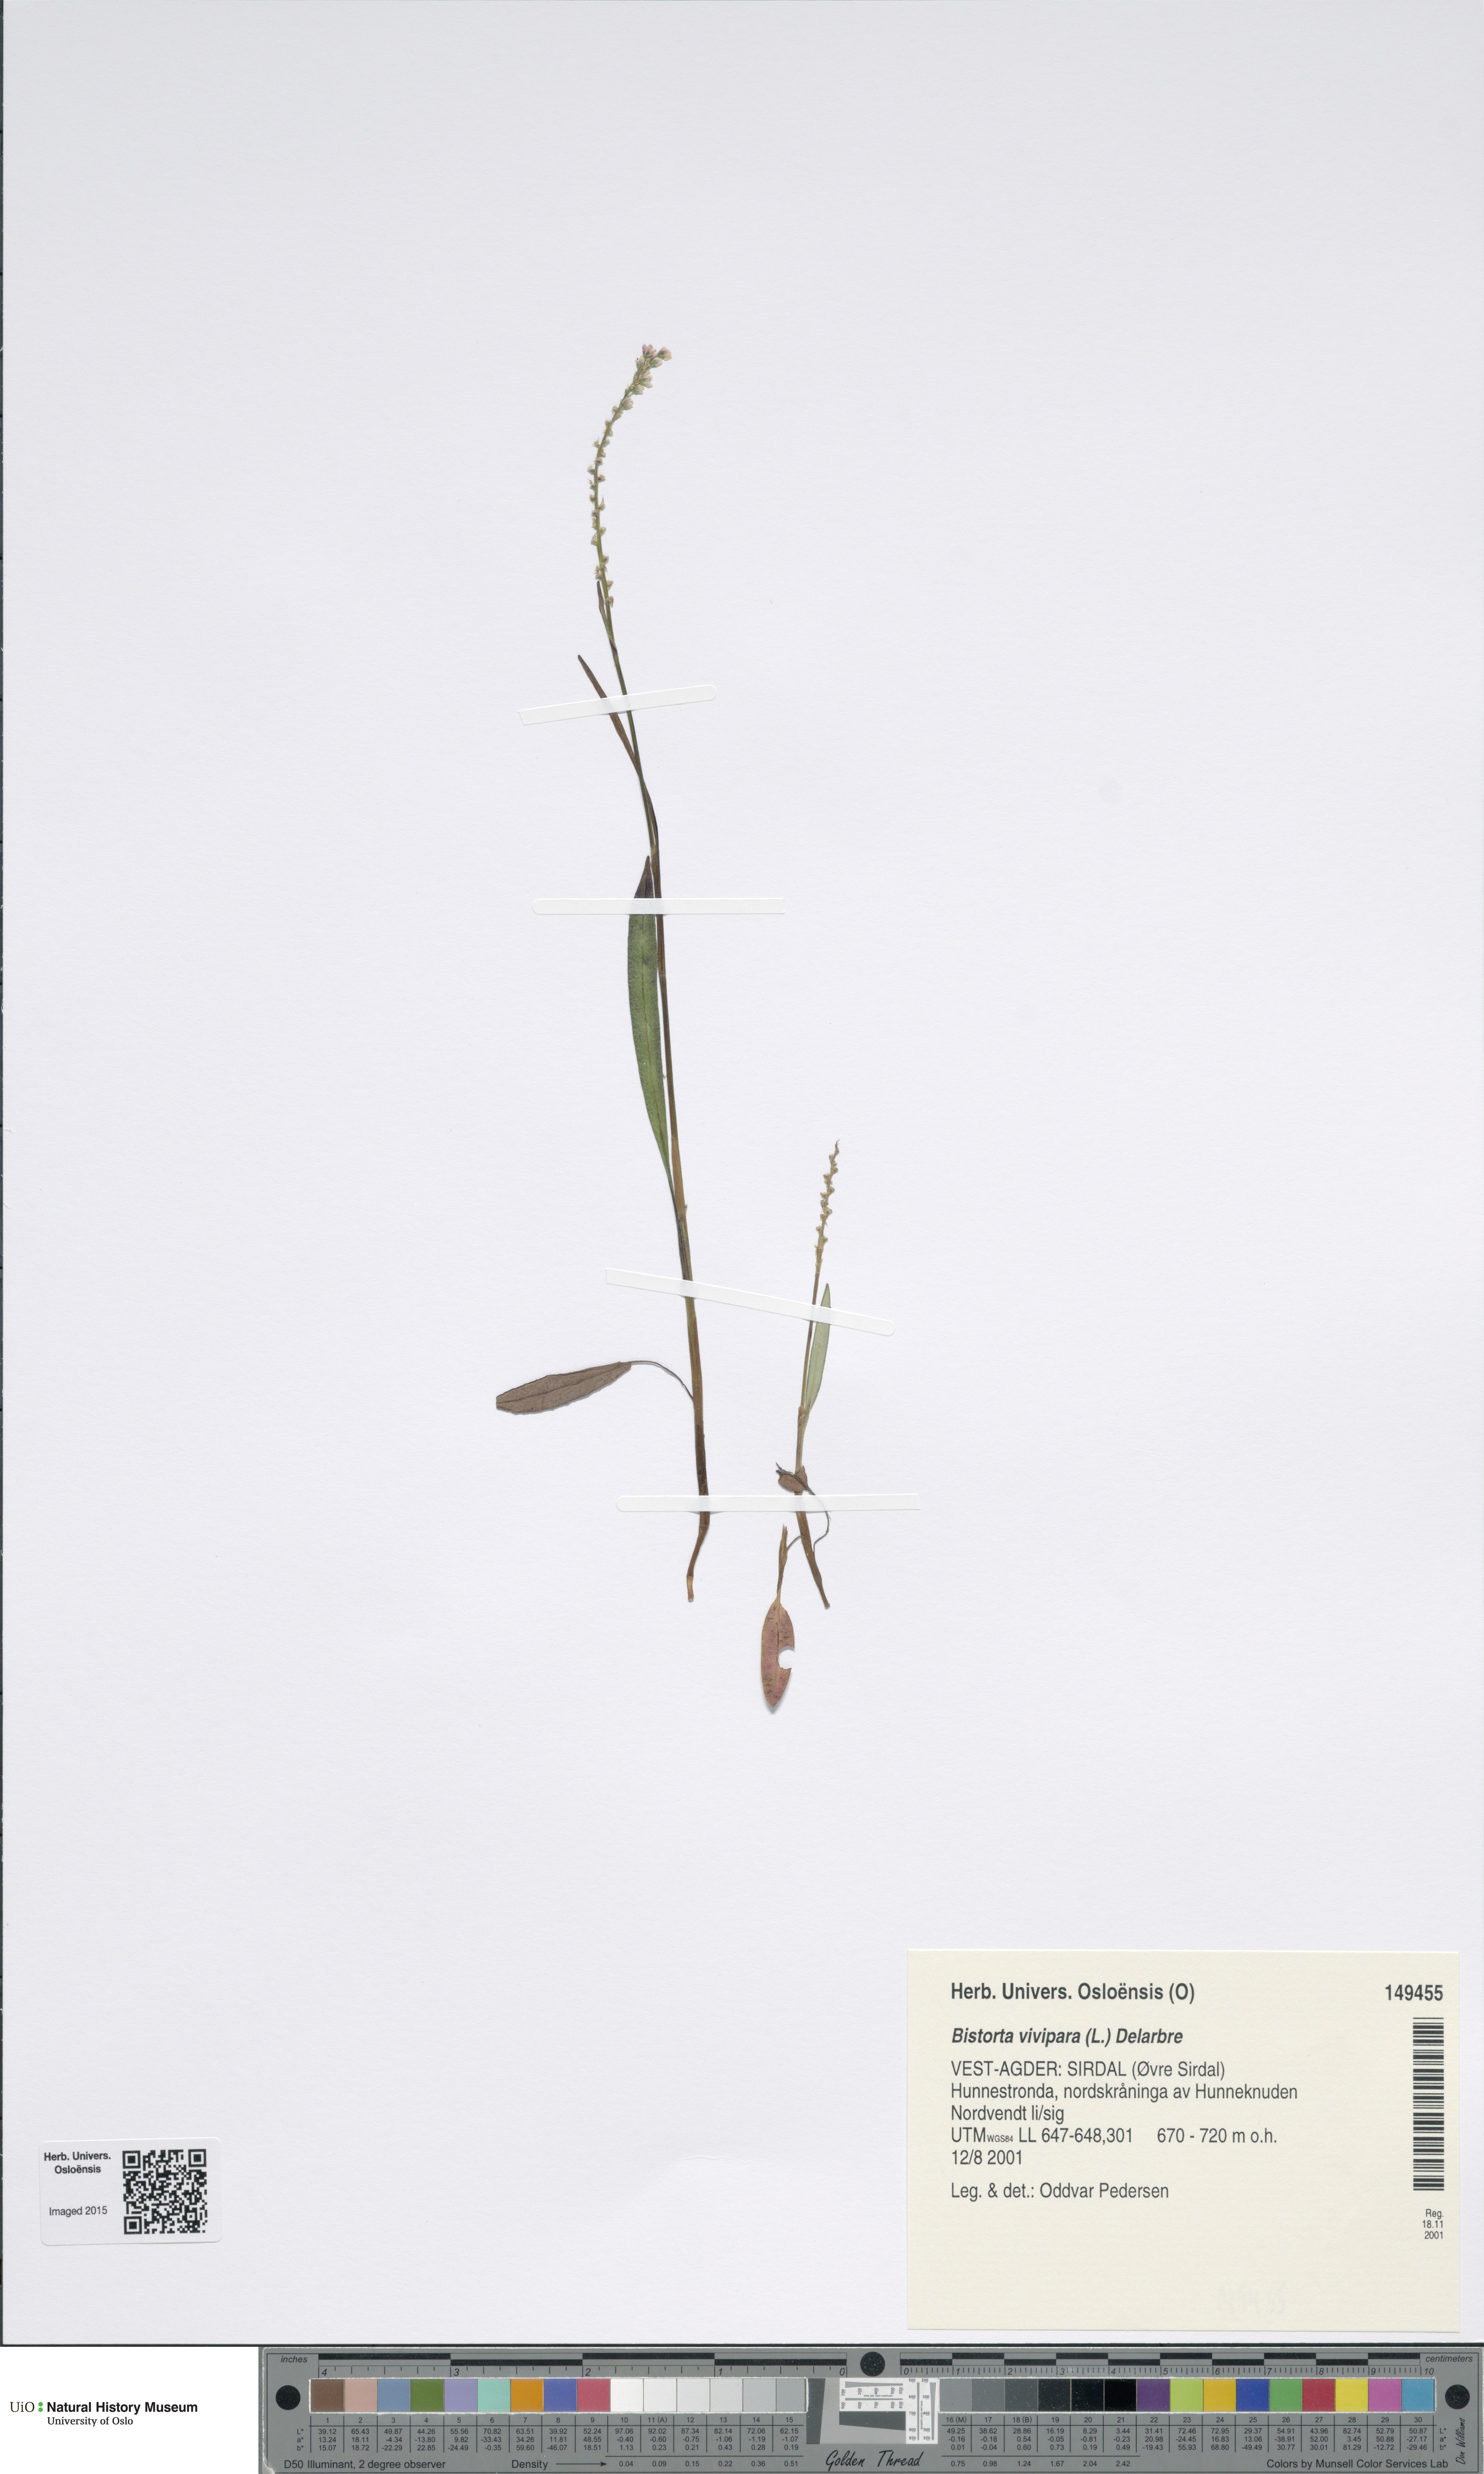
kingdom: Plantae
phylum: Tracheophyta
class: Magnoliopsida
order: Caryophyllales
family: Polygonaceae
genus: Bistorta
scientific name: Bistorta vivipara
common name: Alpine bistort
